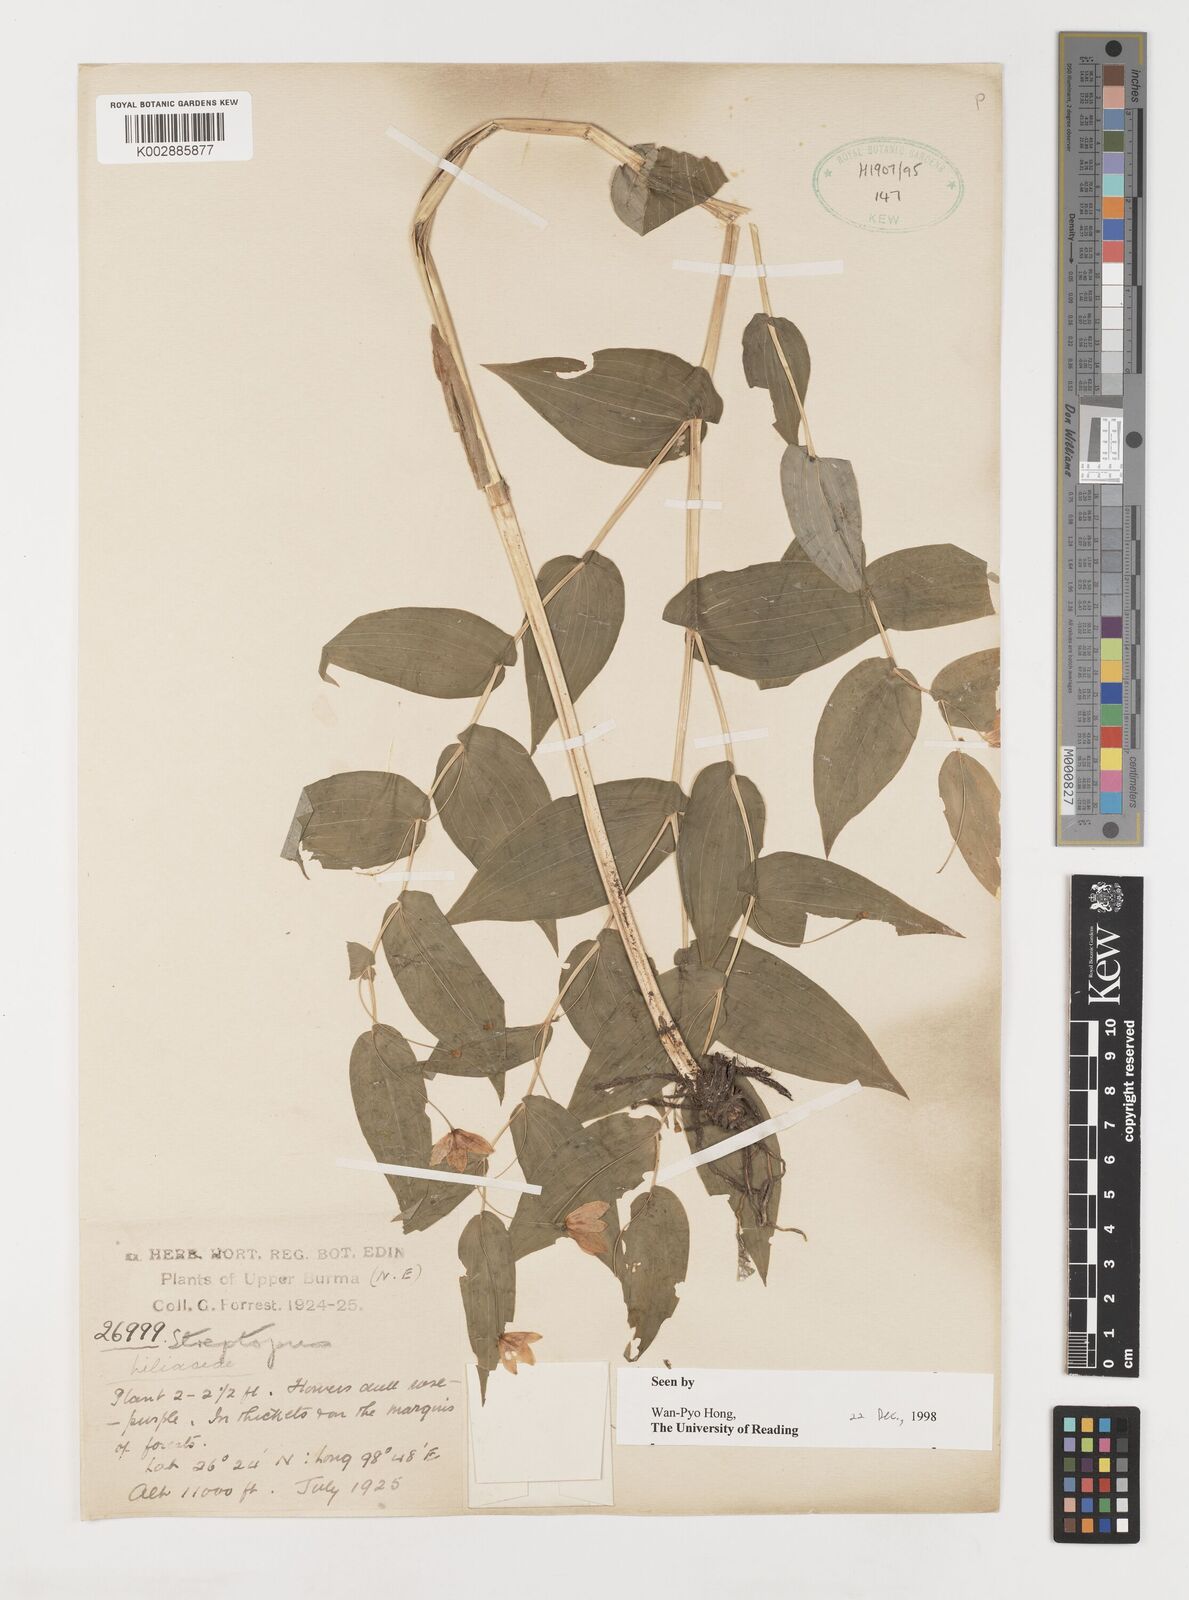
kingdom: Plantae
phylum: Tracheophyta
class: Liliopsida
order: Liliales
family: Liliaceae
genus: Streptopus
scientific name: Streptopus simplex
